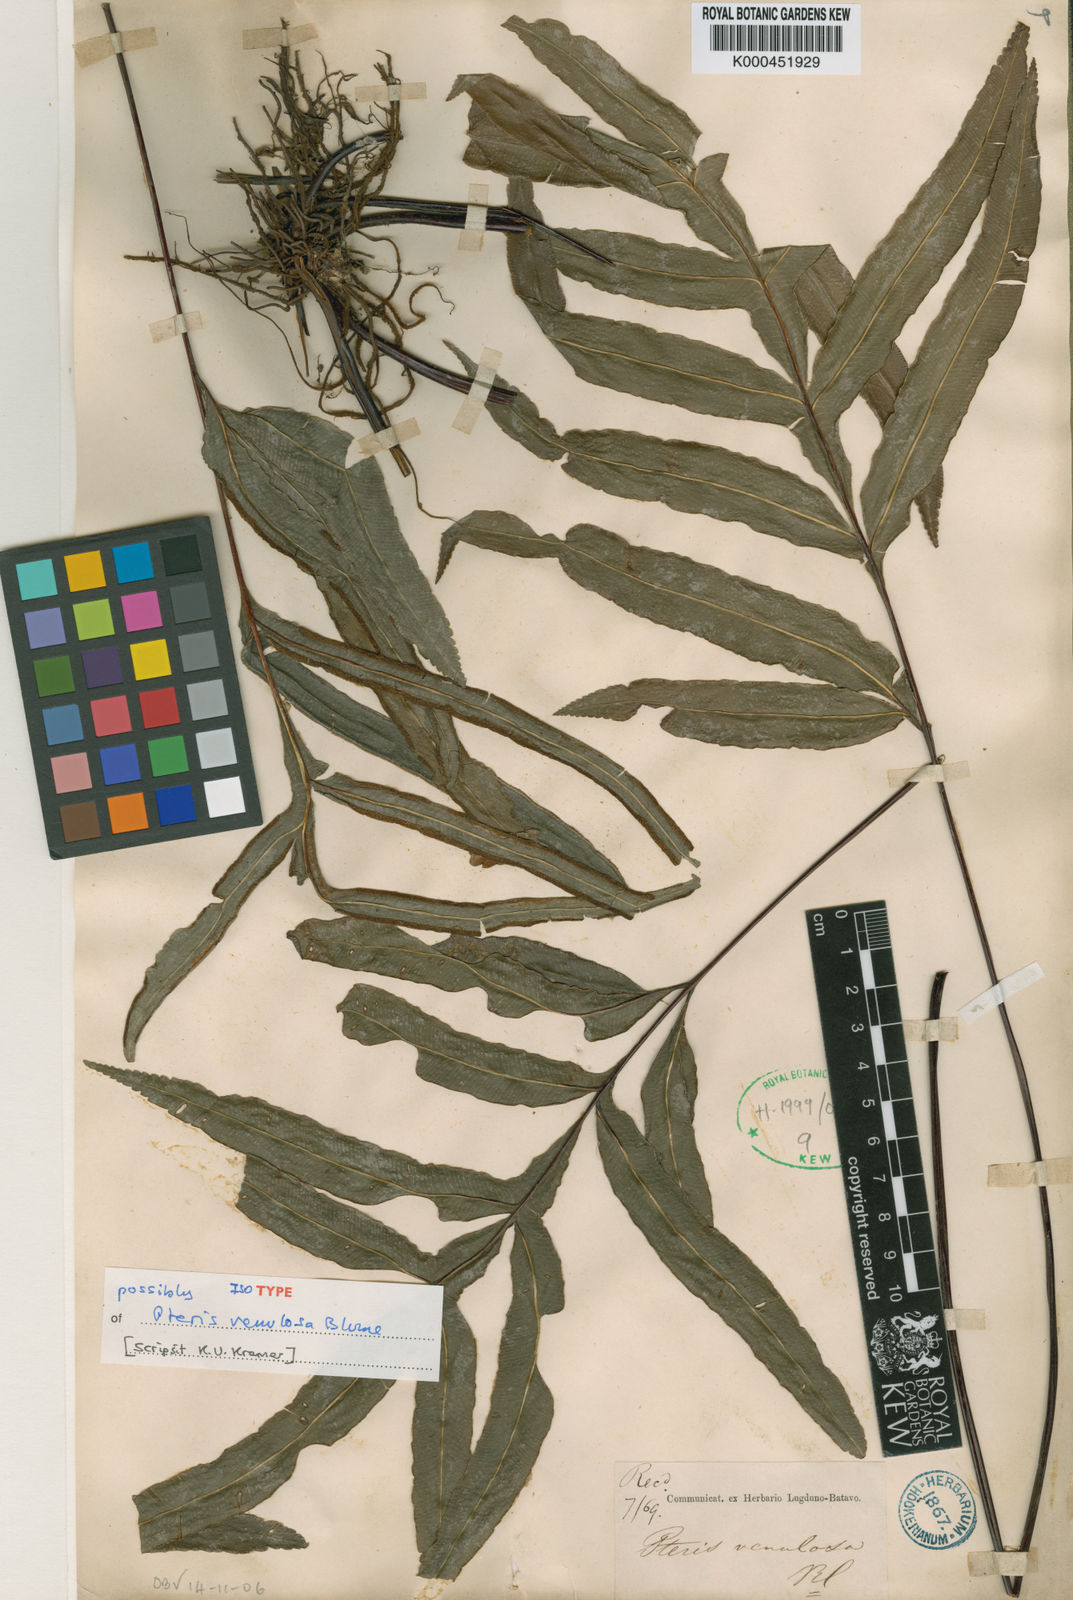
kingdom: Plantae
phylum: Tracheophyta
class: Polypodiopsida
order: Polypodiales
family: Pteridaceae
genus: Pteris
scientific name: Pteris venulosa
